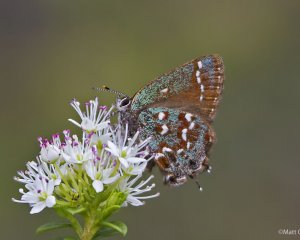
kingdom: Animalia
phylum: Arthropoda
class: Insecta
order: Lepidoptera
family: Lycaenidae
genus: Mitoura
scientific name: Mitoura hesseli
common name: Hessel's Hairstreak
